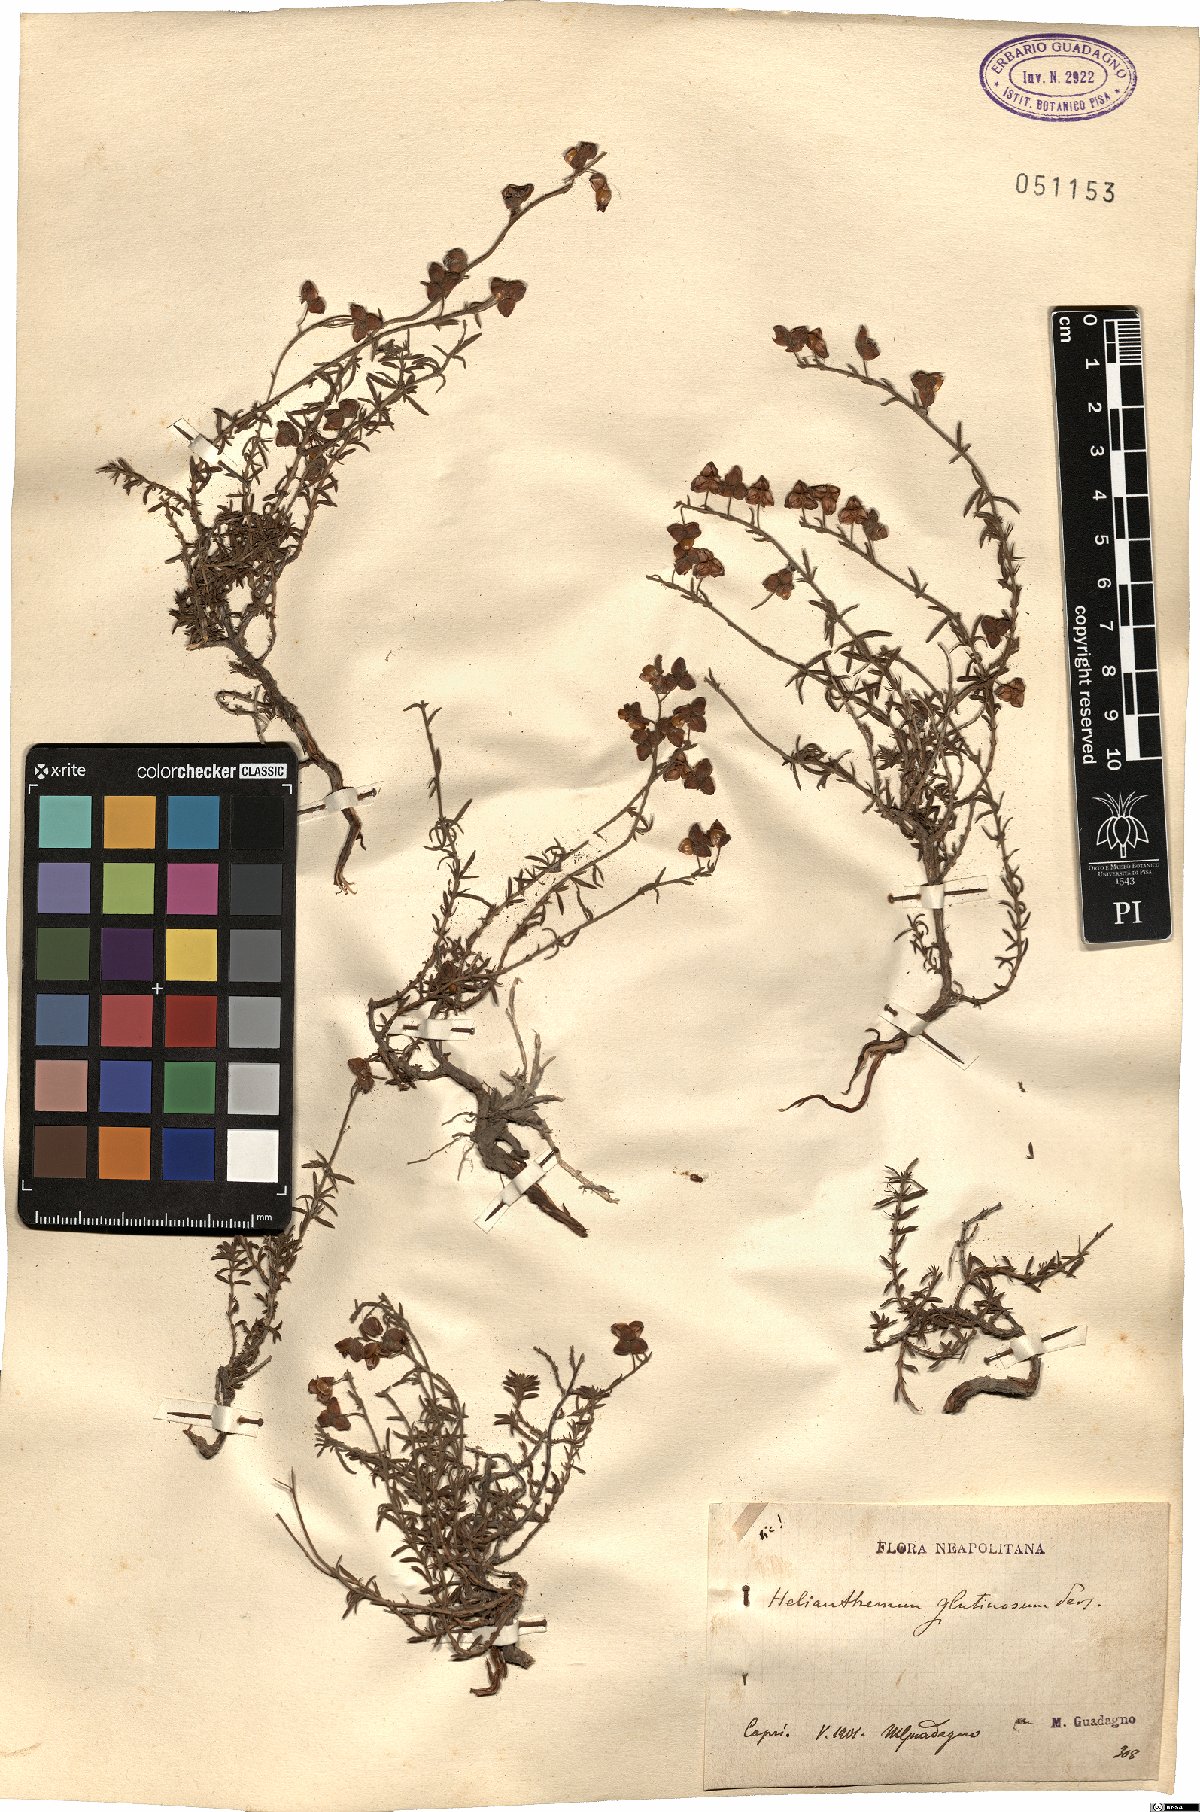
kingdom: Plantae
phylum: Tracheophyta
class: Magnoliopsida
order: Malvales
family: Cistaceae
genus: Fumana
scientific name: Fumana thymifolia
